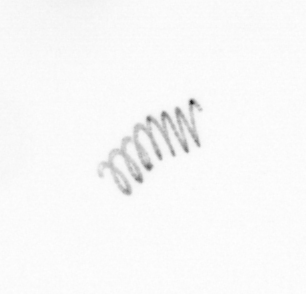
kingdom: Chromista
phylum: Ochrophyta
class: Bacillariophyceae
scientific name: Bacillariophyceae
